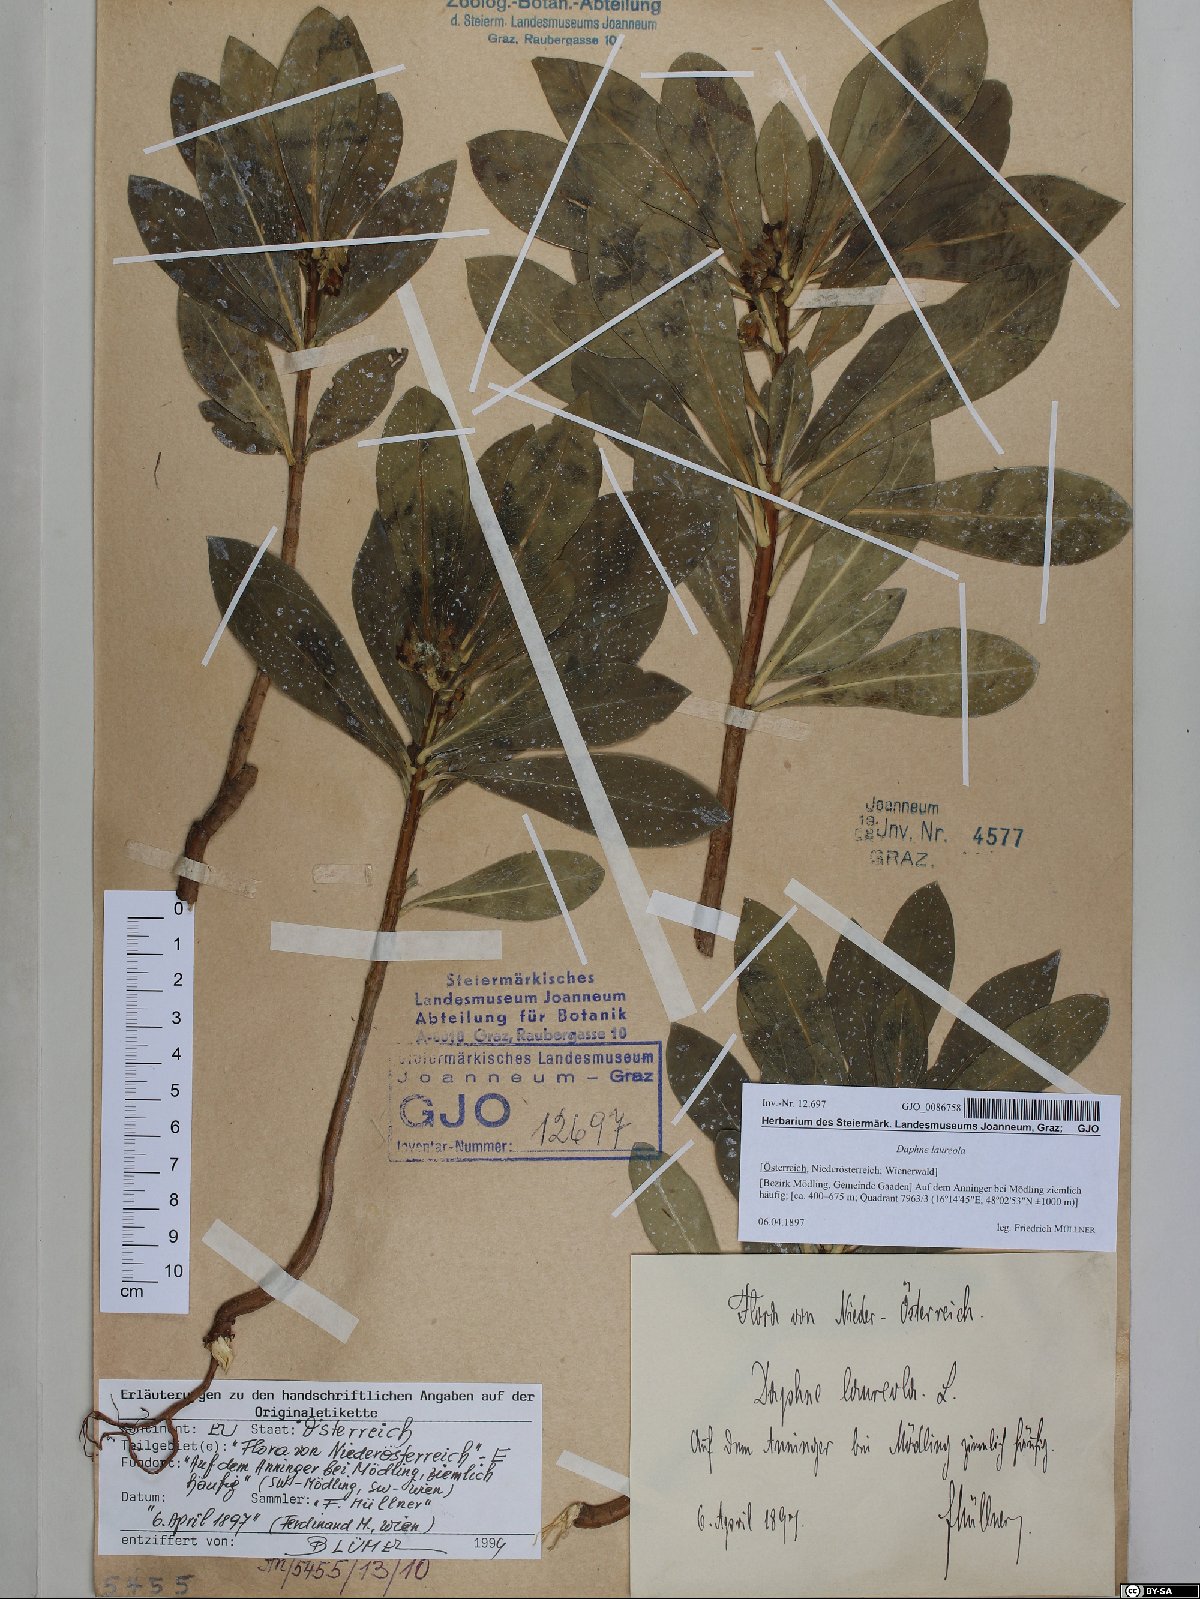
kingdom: Plantae
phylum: Tracheophyta
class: Magnoliopsida
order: Malvales
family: Thymelaeaceae
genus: Daphne
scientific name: Daphne laureola
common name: Spurge-laurel
